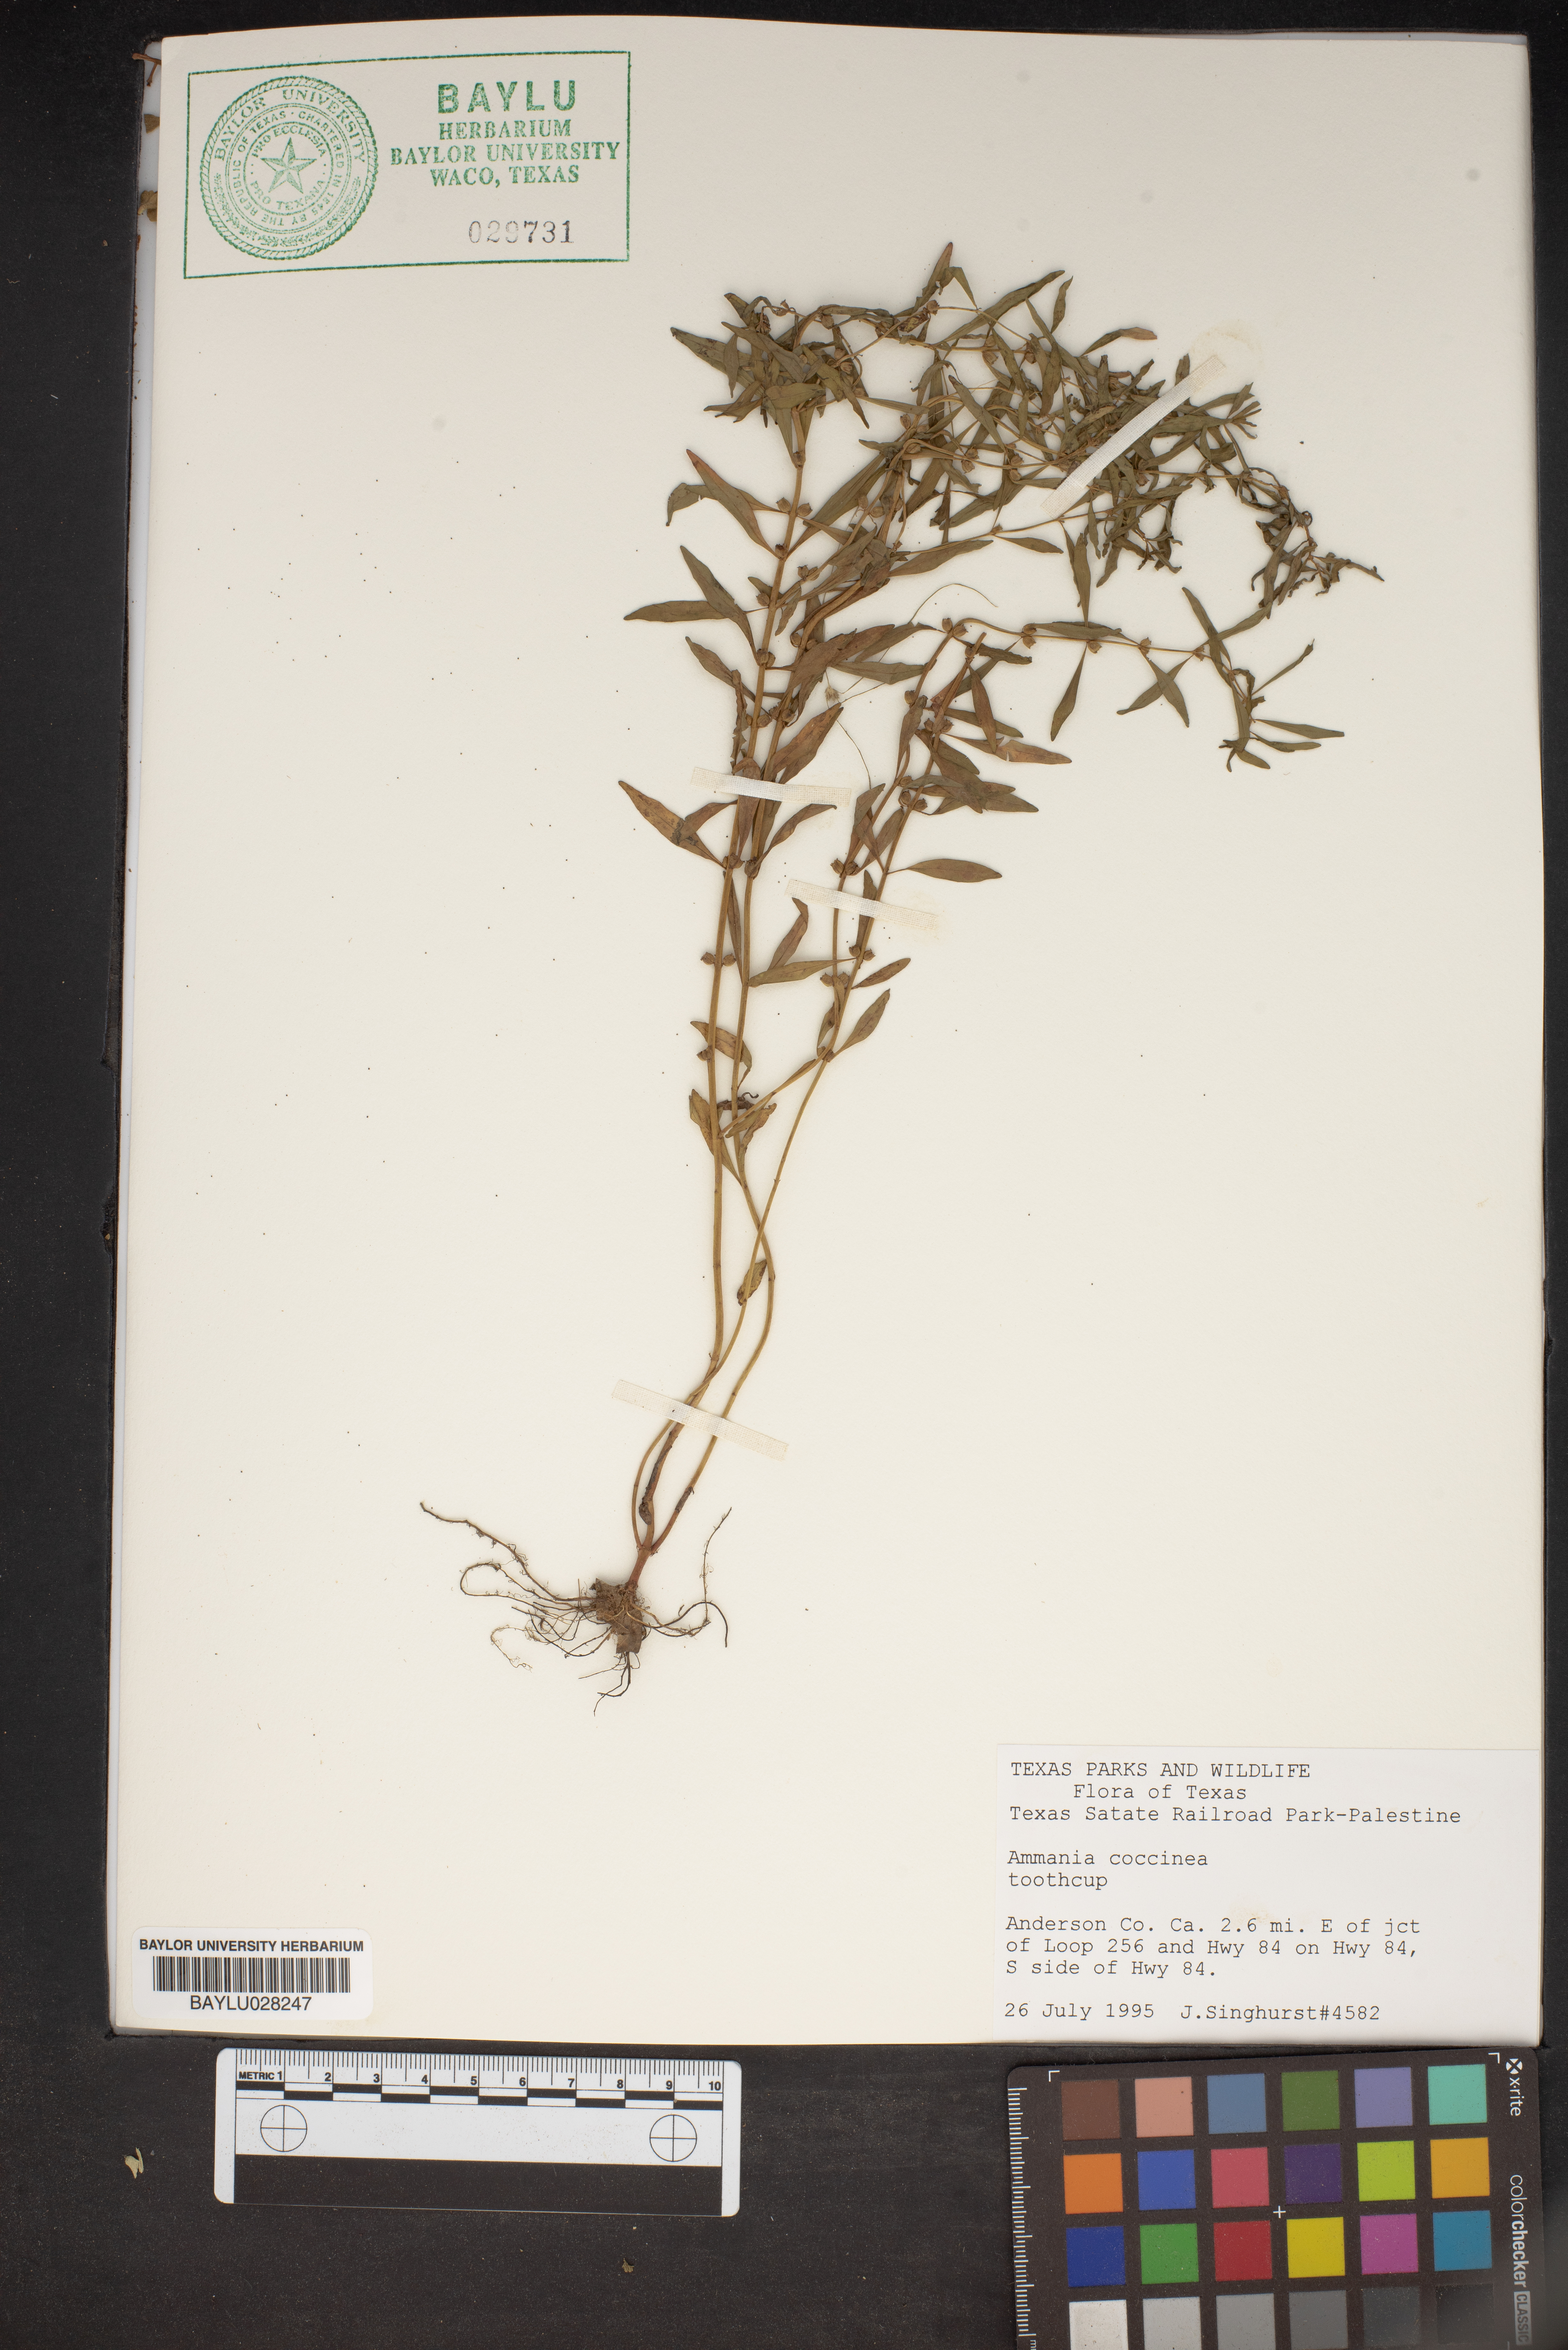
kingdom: Plantae
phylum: Tracheophyta
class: Magnoliopsida
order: Myrtales
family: Lythraceae
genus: Ammannia
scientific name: Ammannia coccinea
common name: Valley redstem
